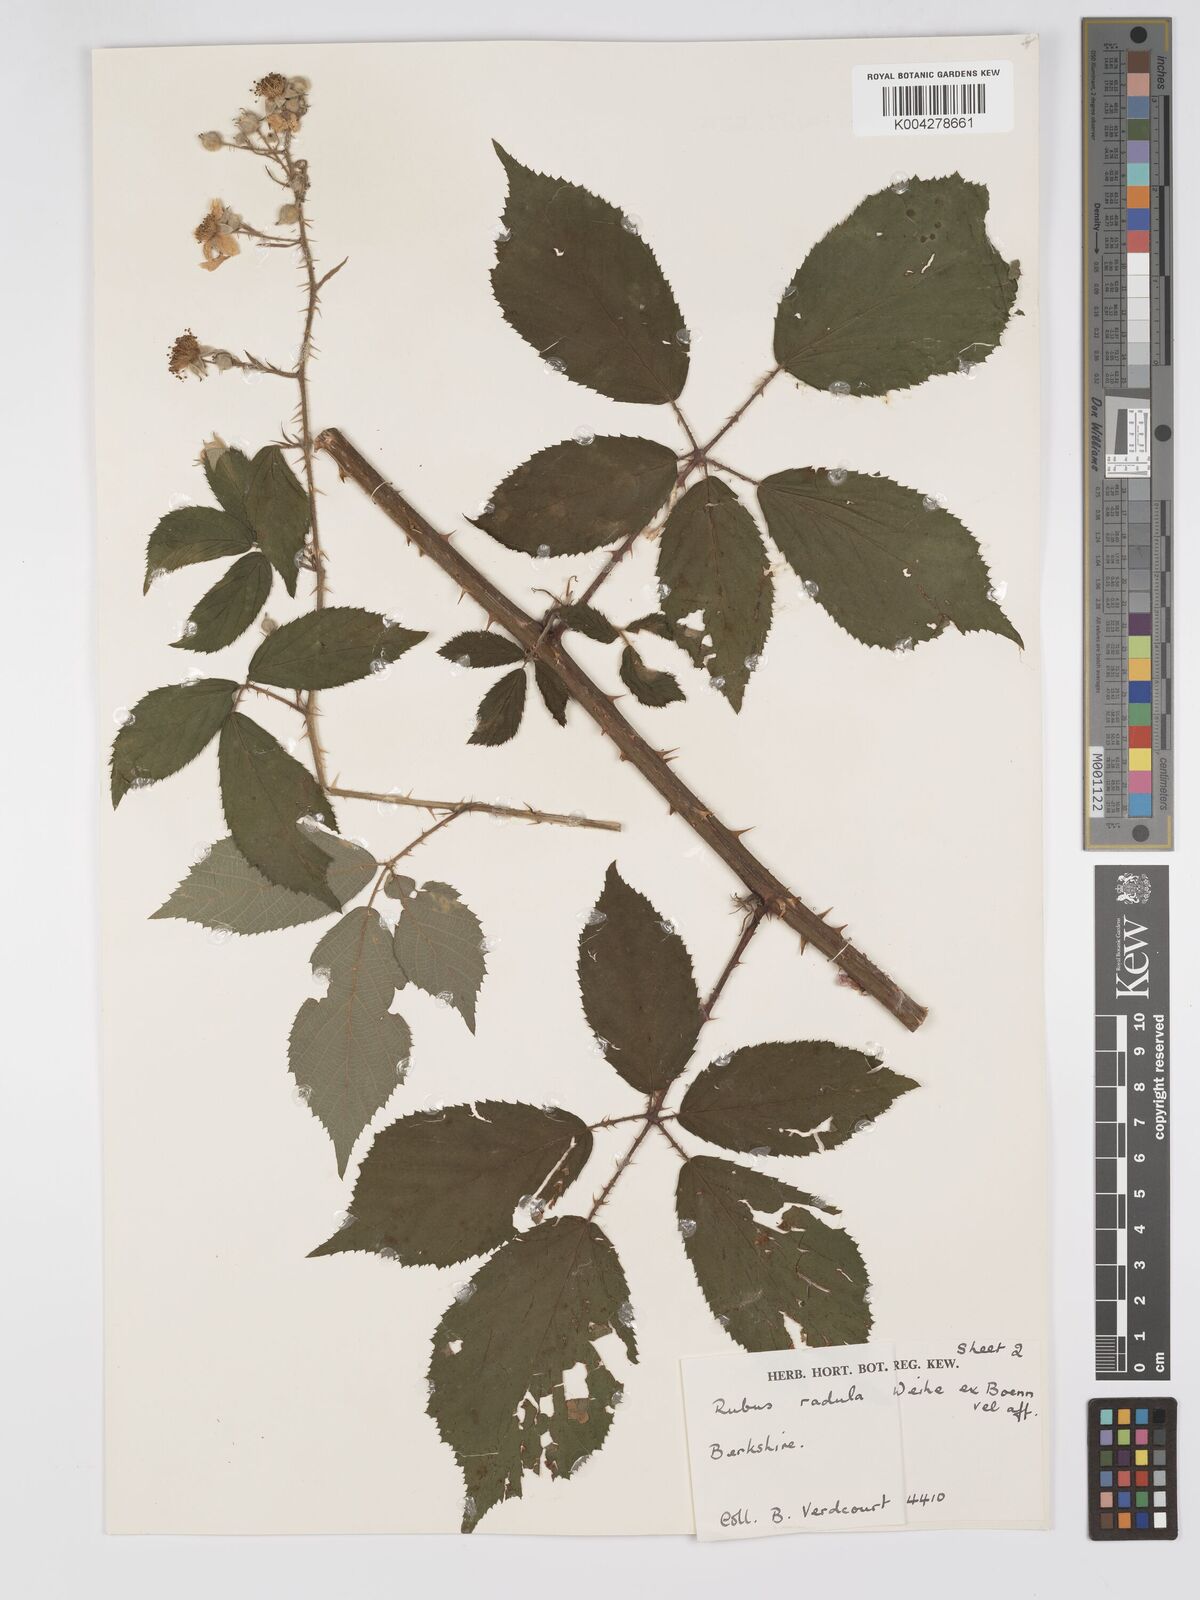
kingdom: Plantae
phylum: Tracheophyta
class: Magnoliopsida
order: Rosales
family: Rosaceae
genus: Rubus
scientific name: Rubus radula
